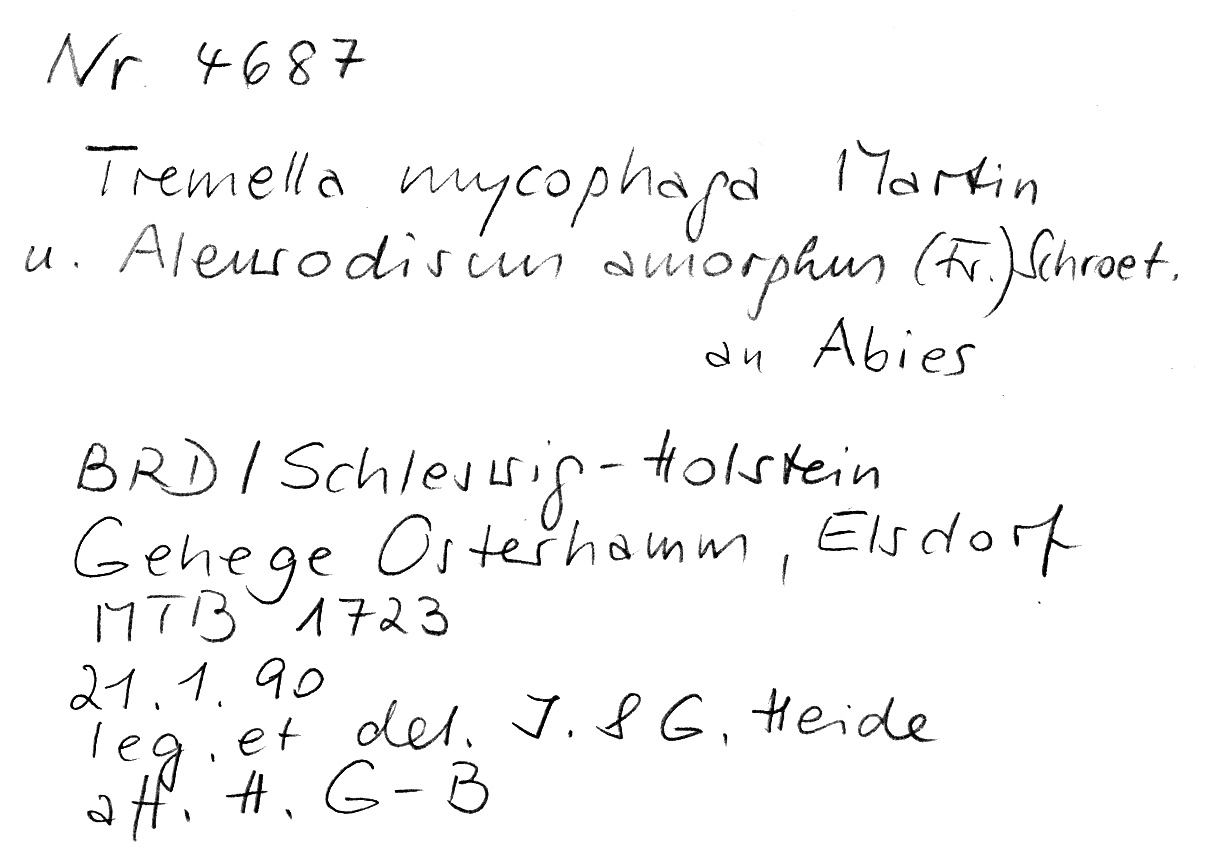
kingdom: Fungi
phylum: Basidiomycota
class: Agaricomycetes
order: Russulales
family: Stereaceae
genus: Aleurodiscus
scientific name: Aleurodiscus amorphus
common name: Orange discus
